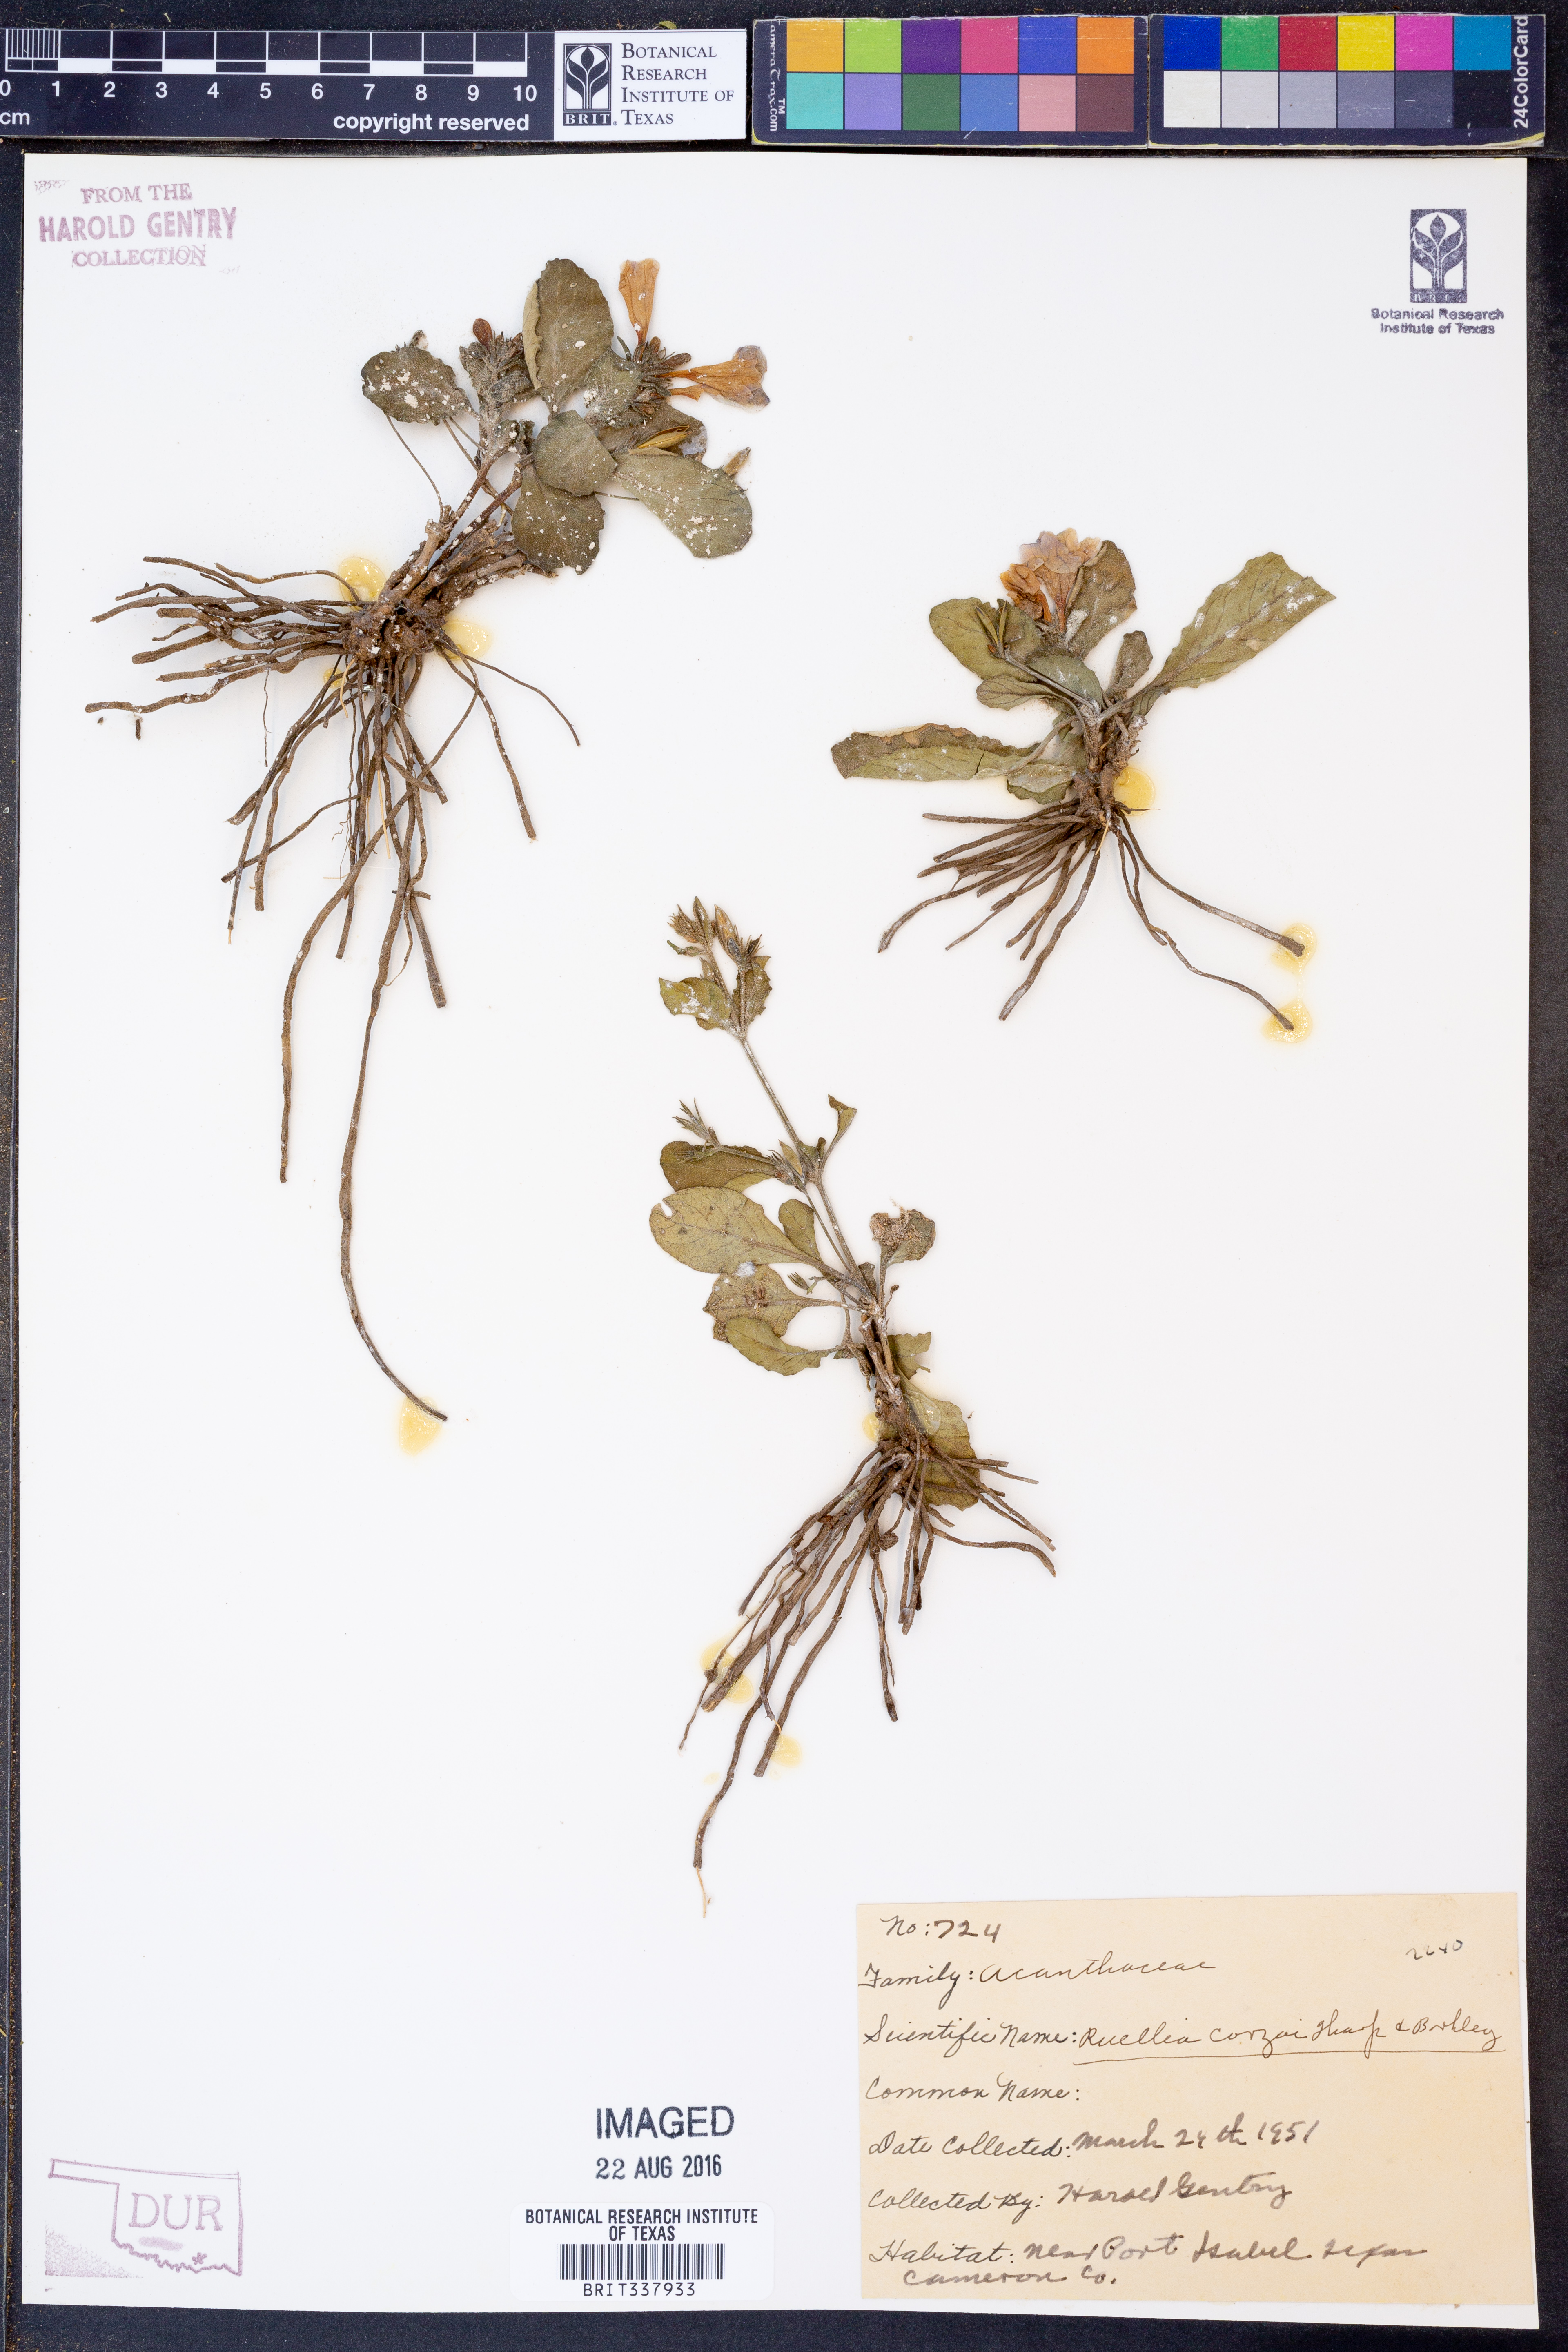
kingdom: Plantae
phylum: Tracheophyta
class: Magnoliopsida
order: Lamiales
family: Acanthaceae
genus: Ruellia
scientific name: Ruellia corzoi
